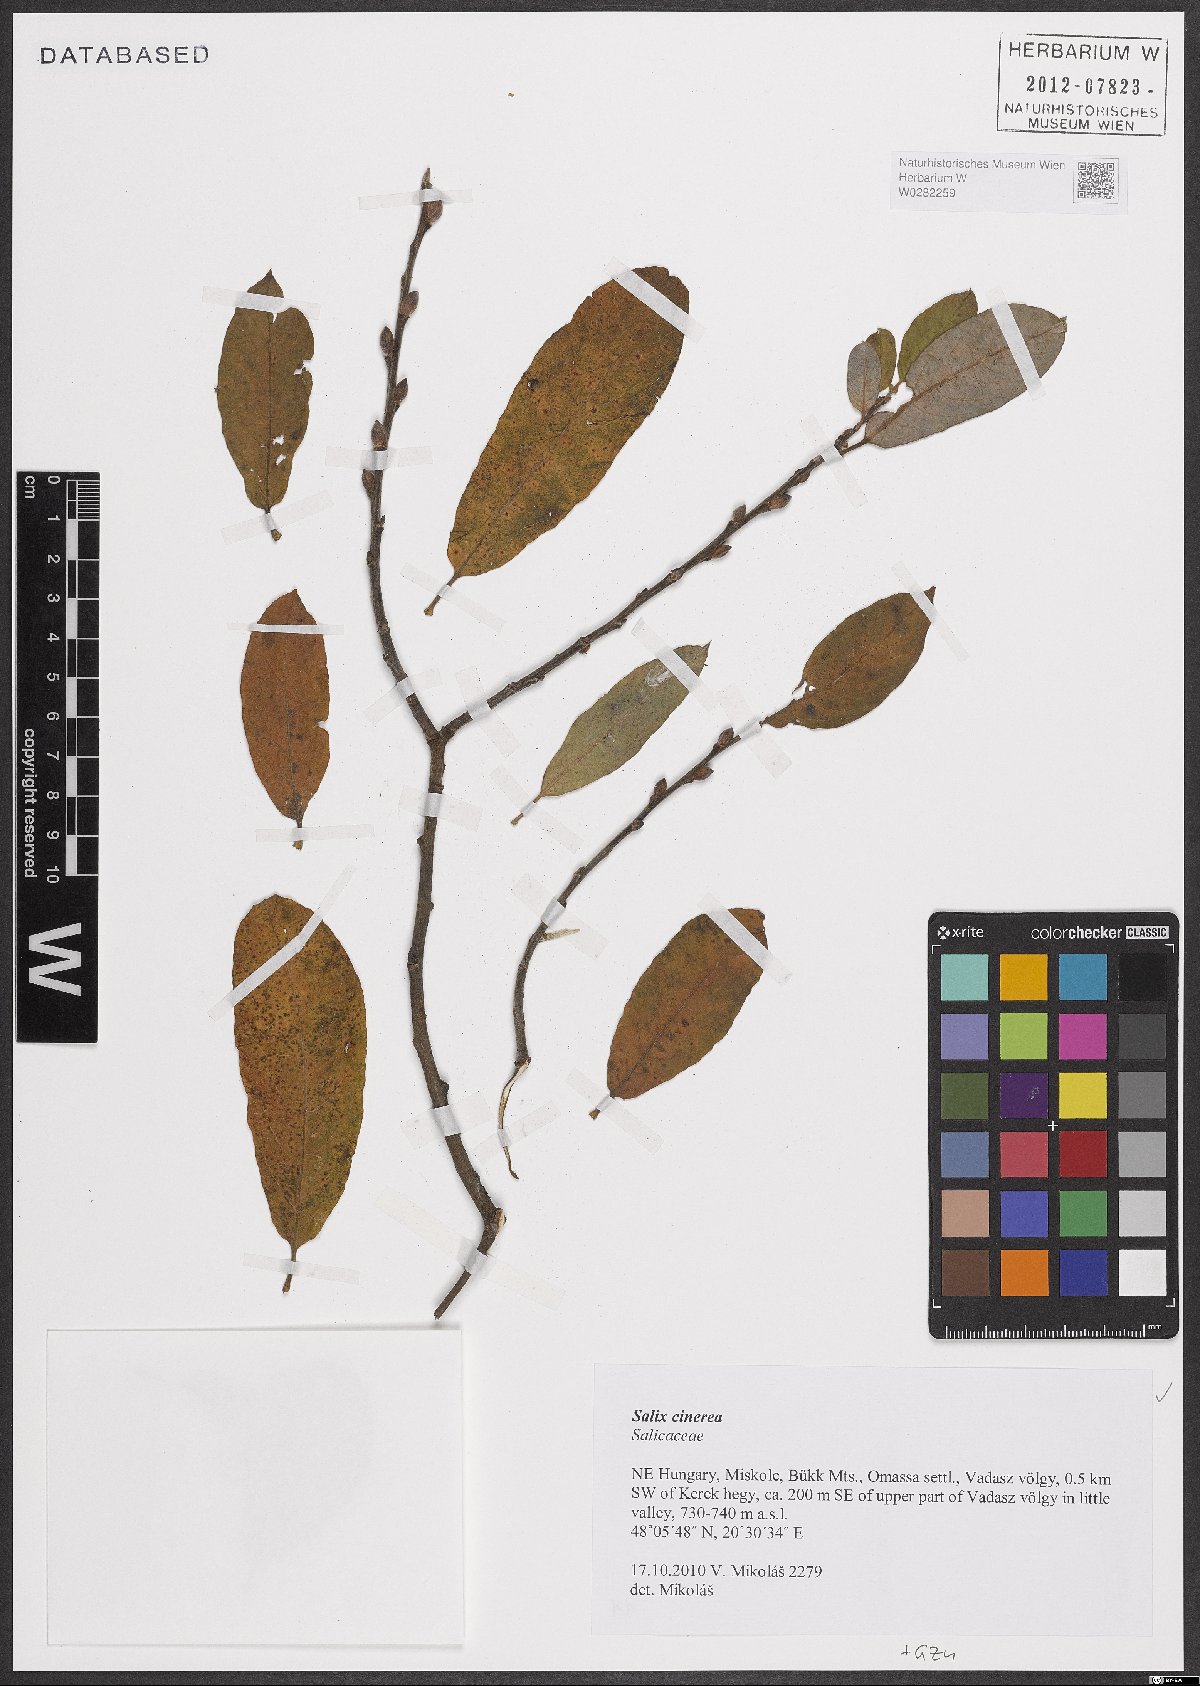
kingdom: Plantae
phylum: Tracheophyta
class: Magnoliopsida
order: Malpighiales
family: Salicaceae
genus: Salix
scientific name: Salix cinerea
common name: Common sallow
